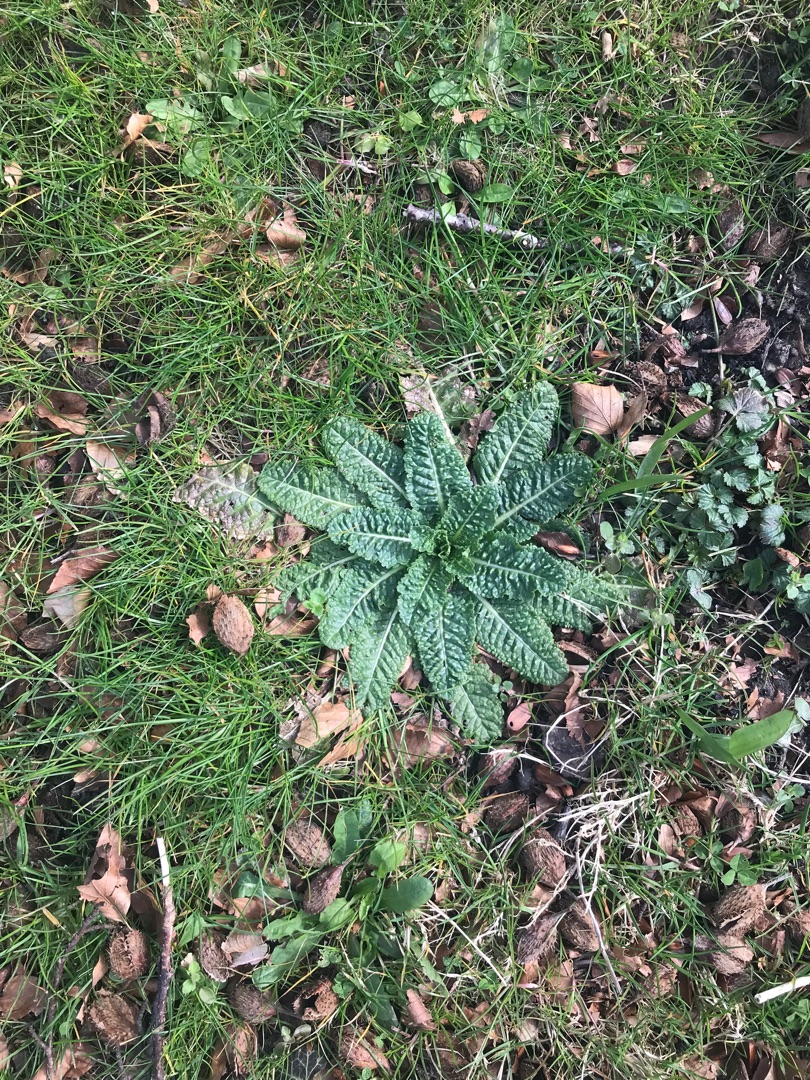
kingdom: Plantae
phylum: Tracheophyta
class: Magnoliopsida
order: Dipsacales
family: Caprifoliaceae
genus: Dipsacus
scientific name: Dipsacus fullonum
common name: Gærde-kartebolle
